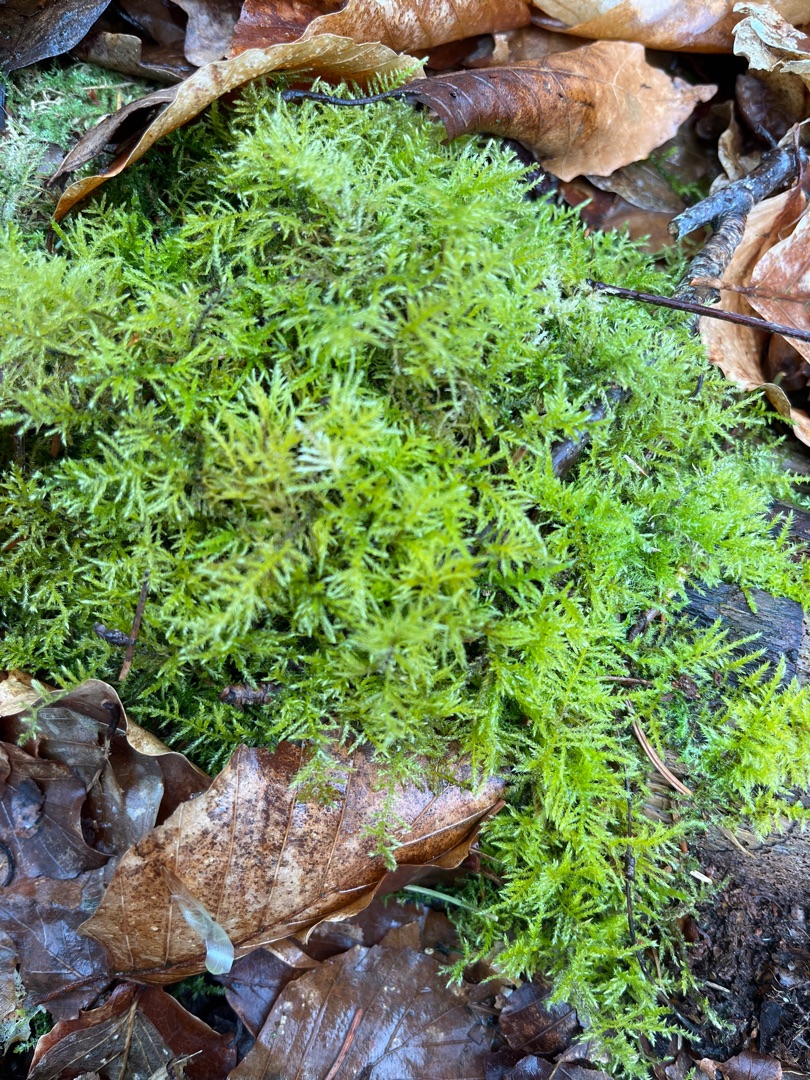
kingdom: Plantae
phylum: Bryophyta
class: Bryopsida
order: Hypnales
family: Brachytheciaceae
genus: Kindbergia
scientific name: Kindbergia praelonga
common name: Forskelligbladet vortetand
